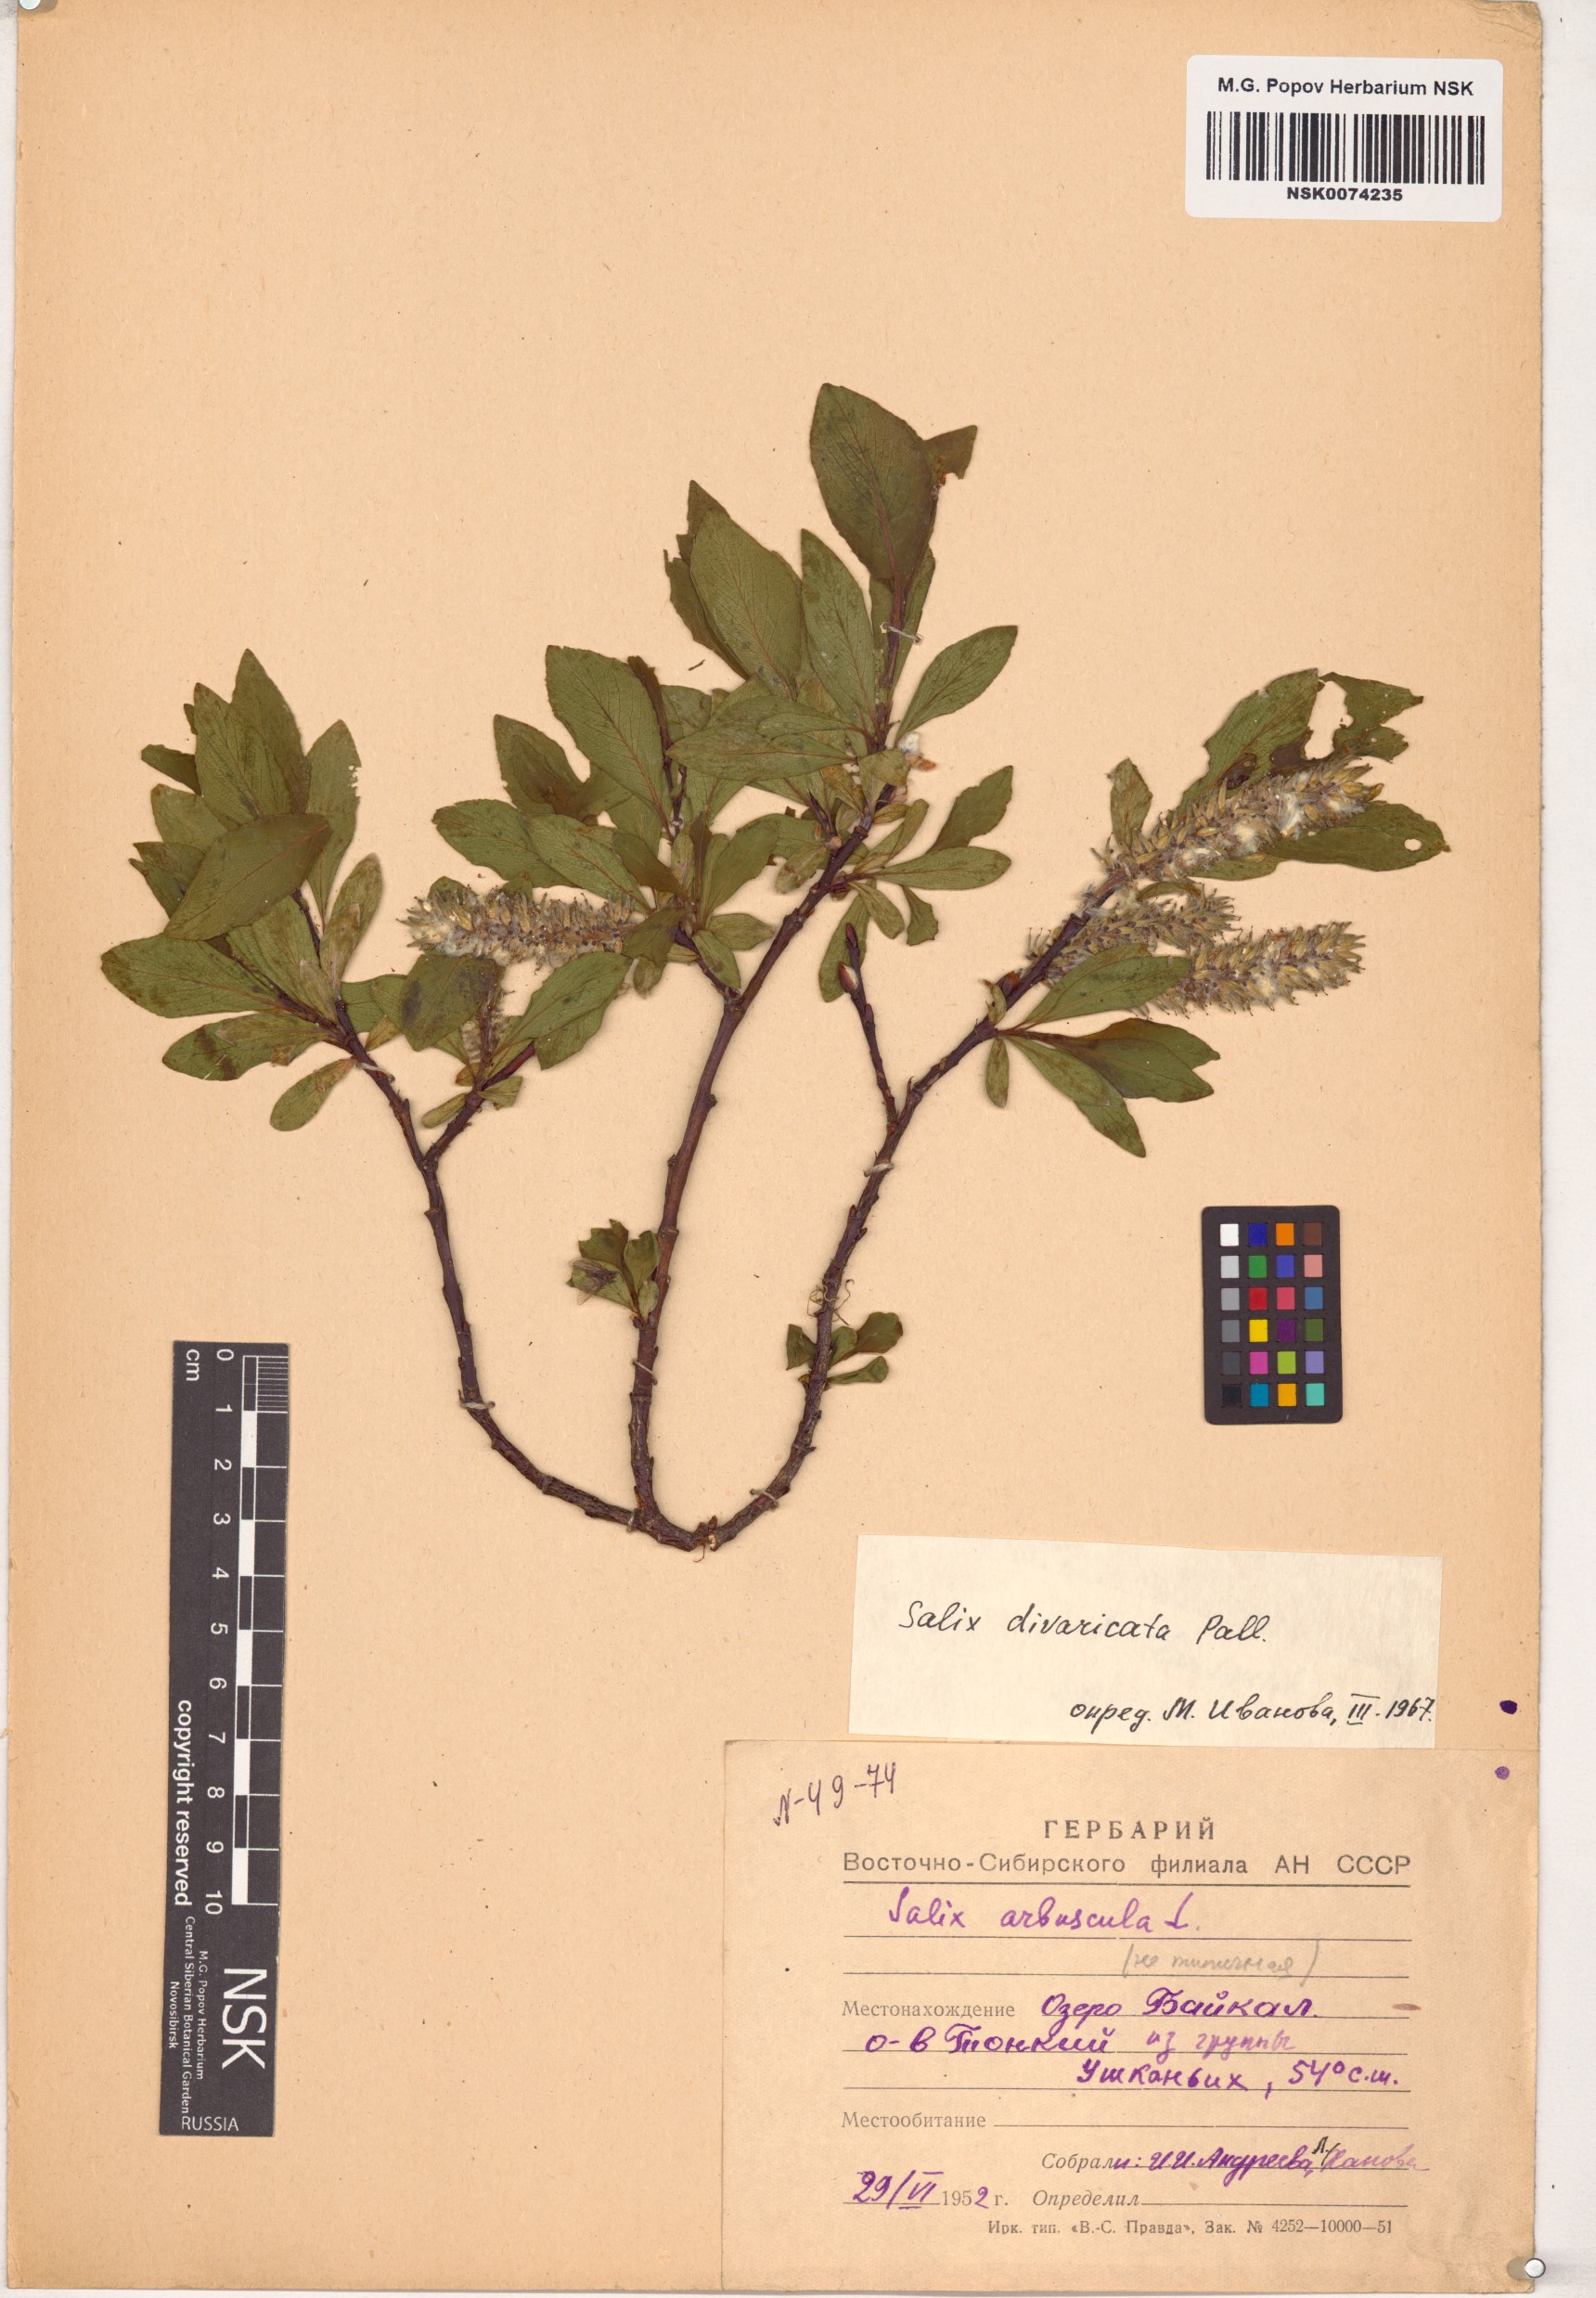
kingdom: Plantae
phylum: Tracheophyta
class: Magnoliopsida
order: Malpighiales
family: Salicaceae
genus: Salix
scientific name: Salix divaricata
